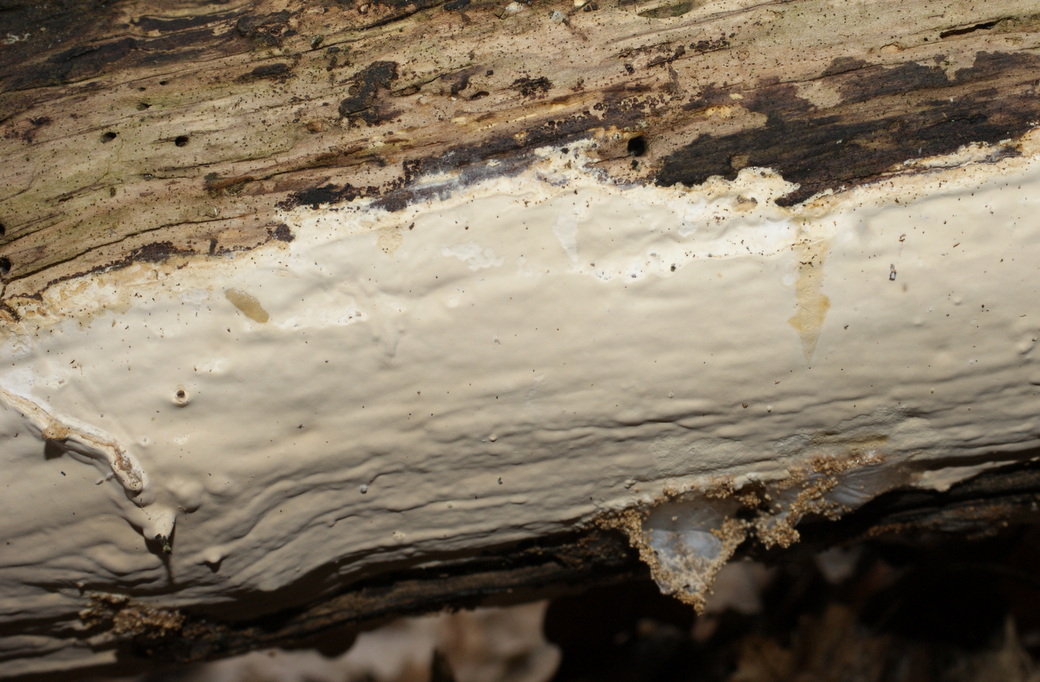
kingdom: Fungi
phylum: Basidiomycota
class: Agaricomycetes
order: Russulales
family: Peniophoraceae
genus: Scytinostroma
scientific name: Scytinostroma hemidichophyticum
